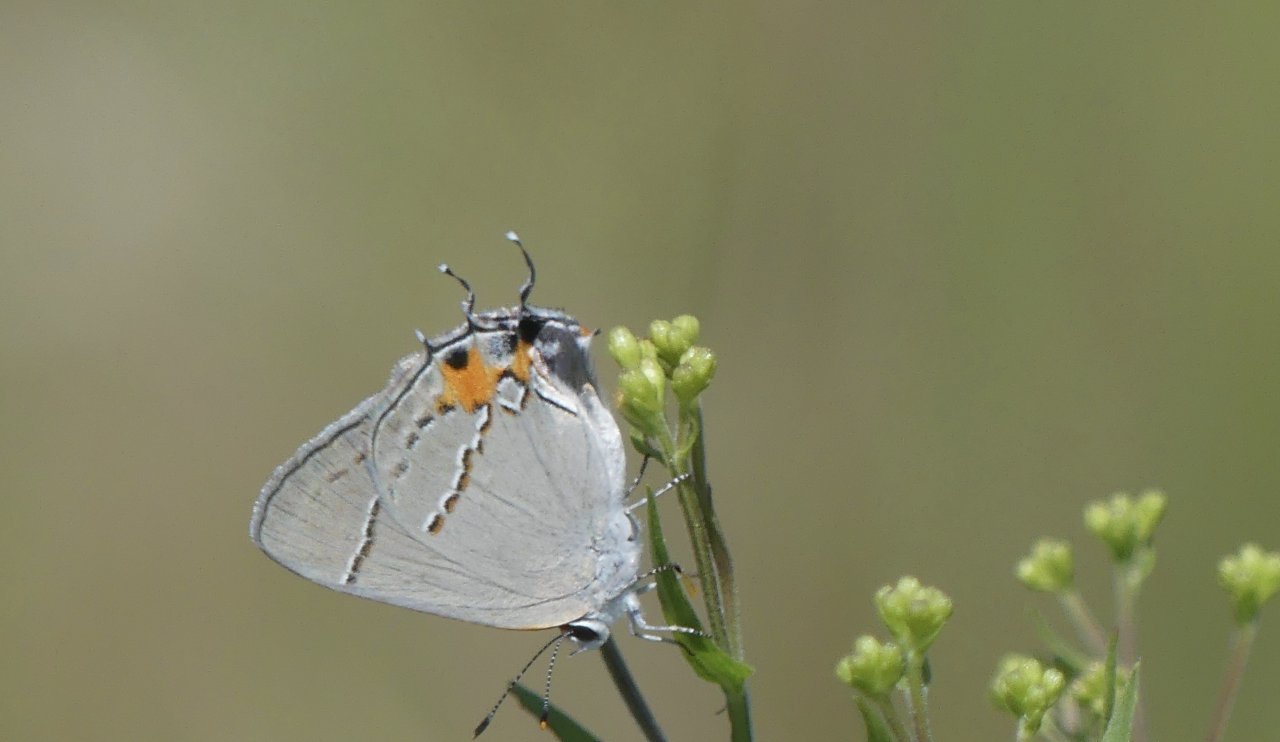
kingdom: Animalia
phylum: Arthropoda
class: Insecta
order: Lepidoptera
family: Lycaenidae
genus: Strymon
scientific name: Strymon melinus
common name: Gray Hairstreak
